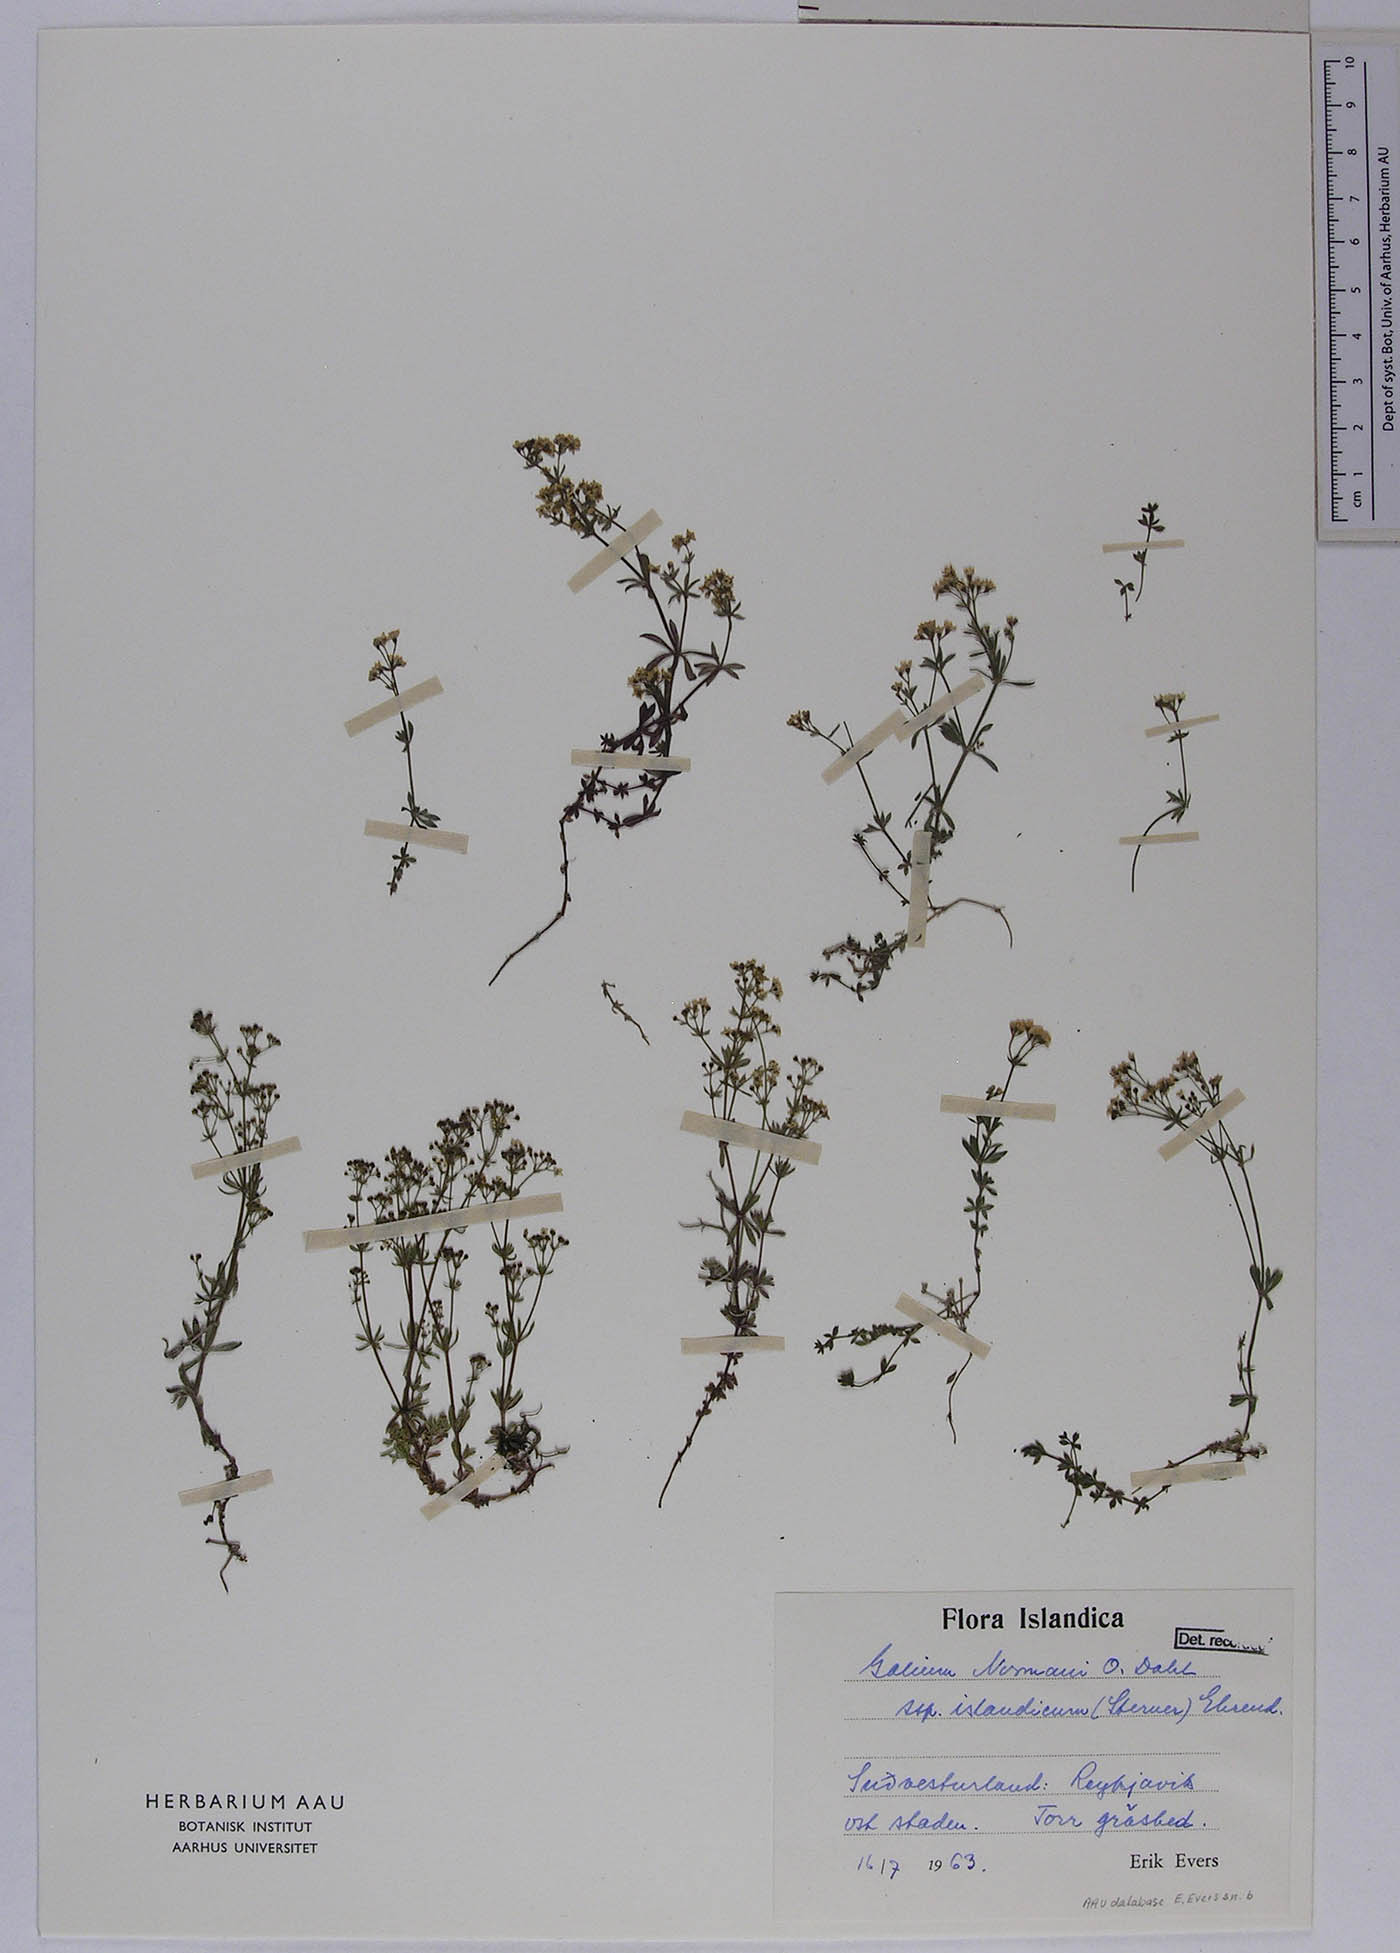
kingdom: Plantae
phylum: Tracheophyta
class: Magnoliopsida
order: Gentianales
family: Rubiaceae
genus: Galium
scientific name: Galium normanii
